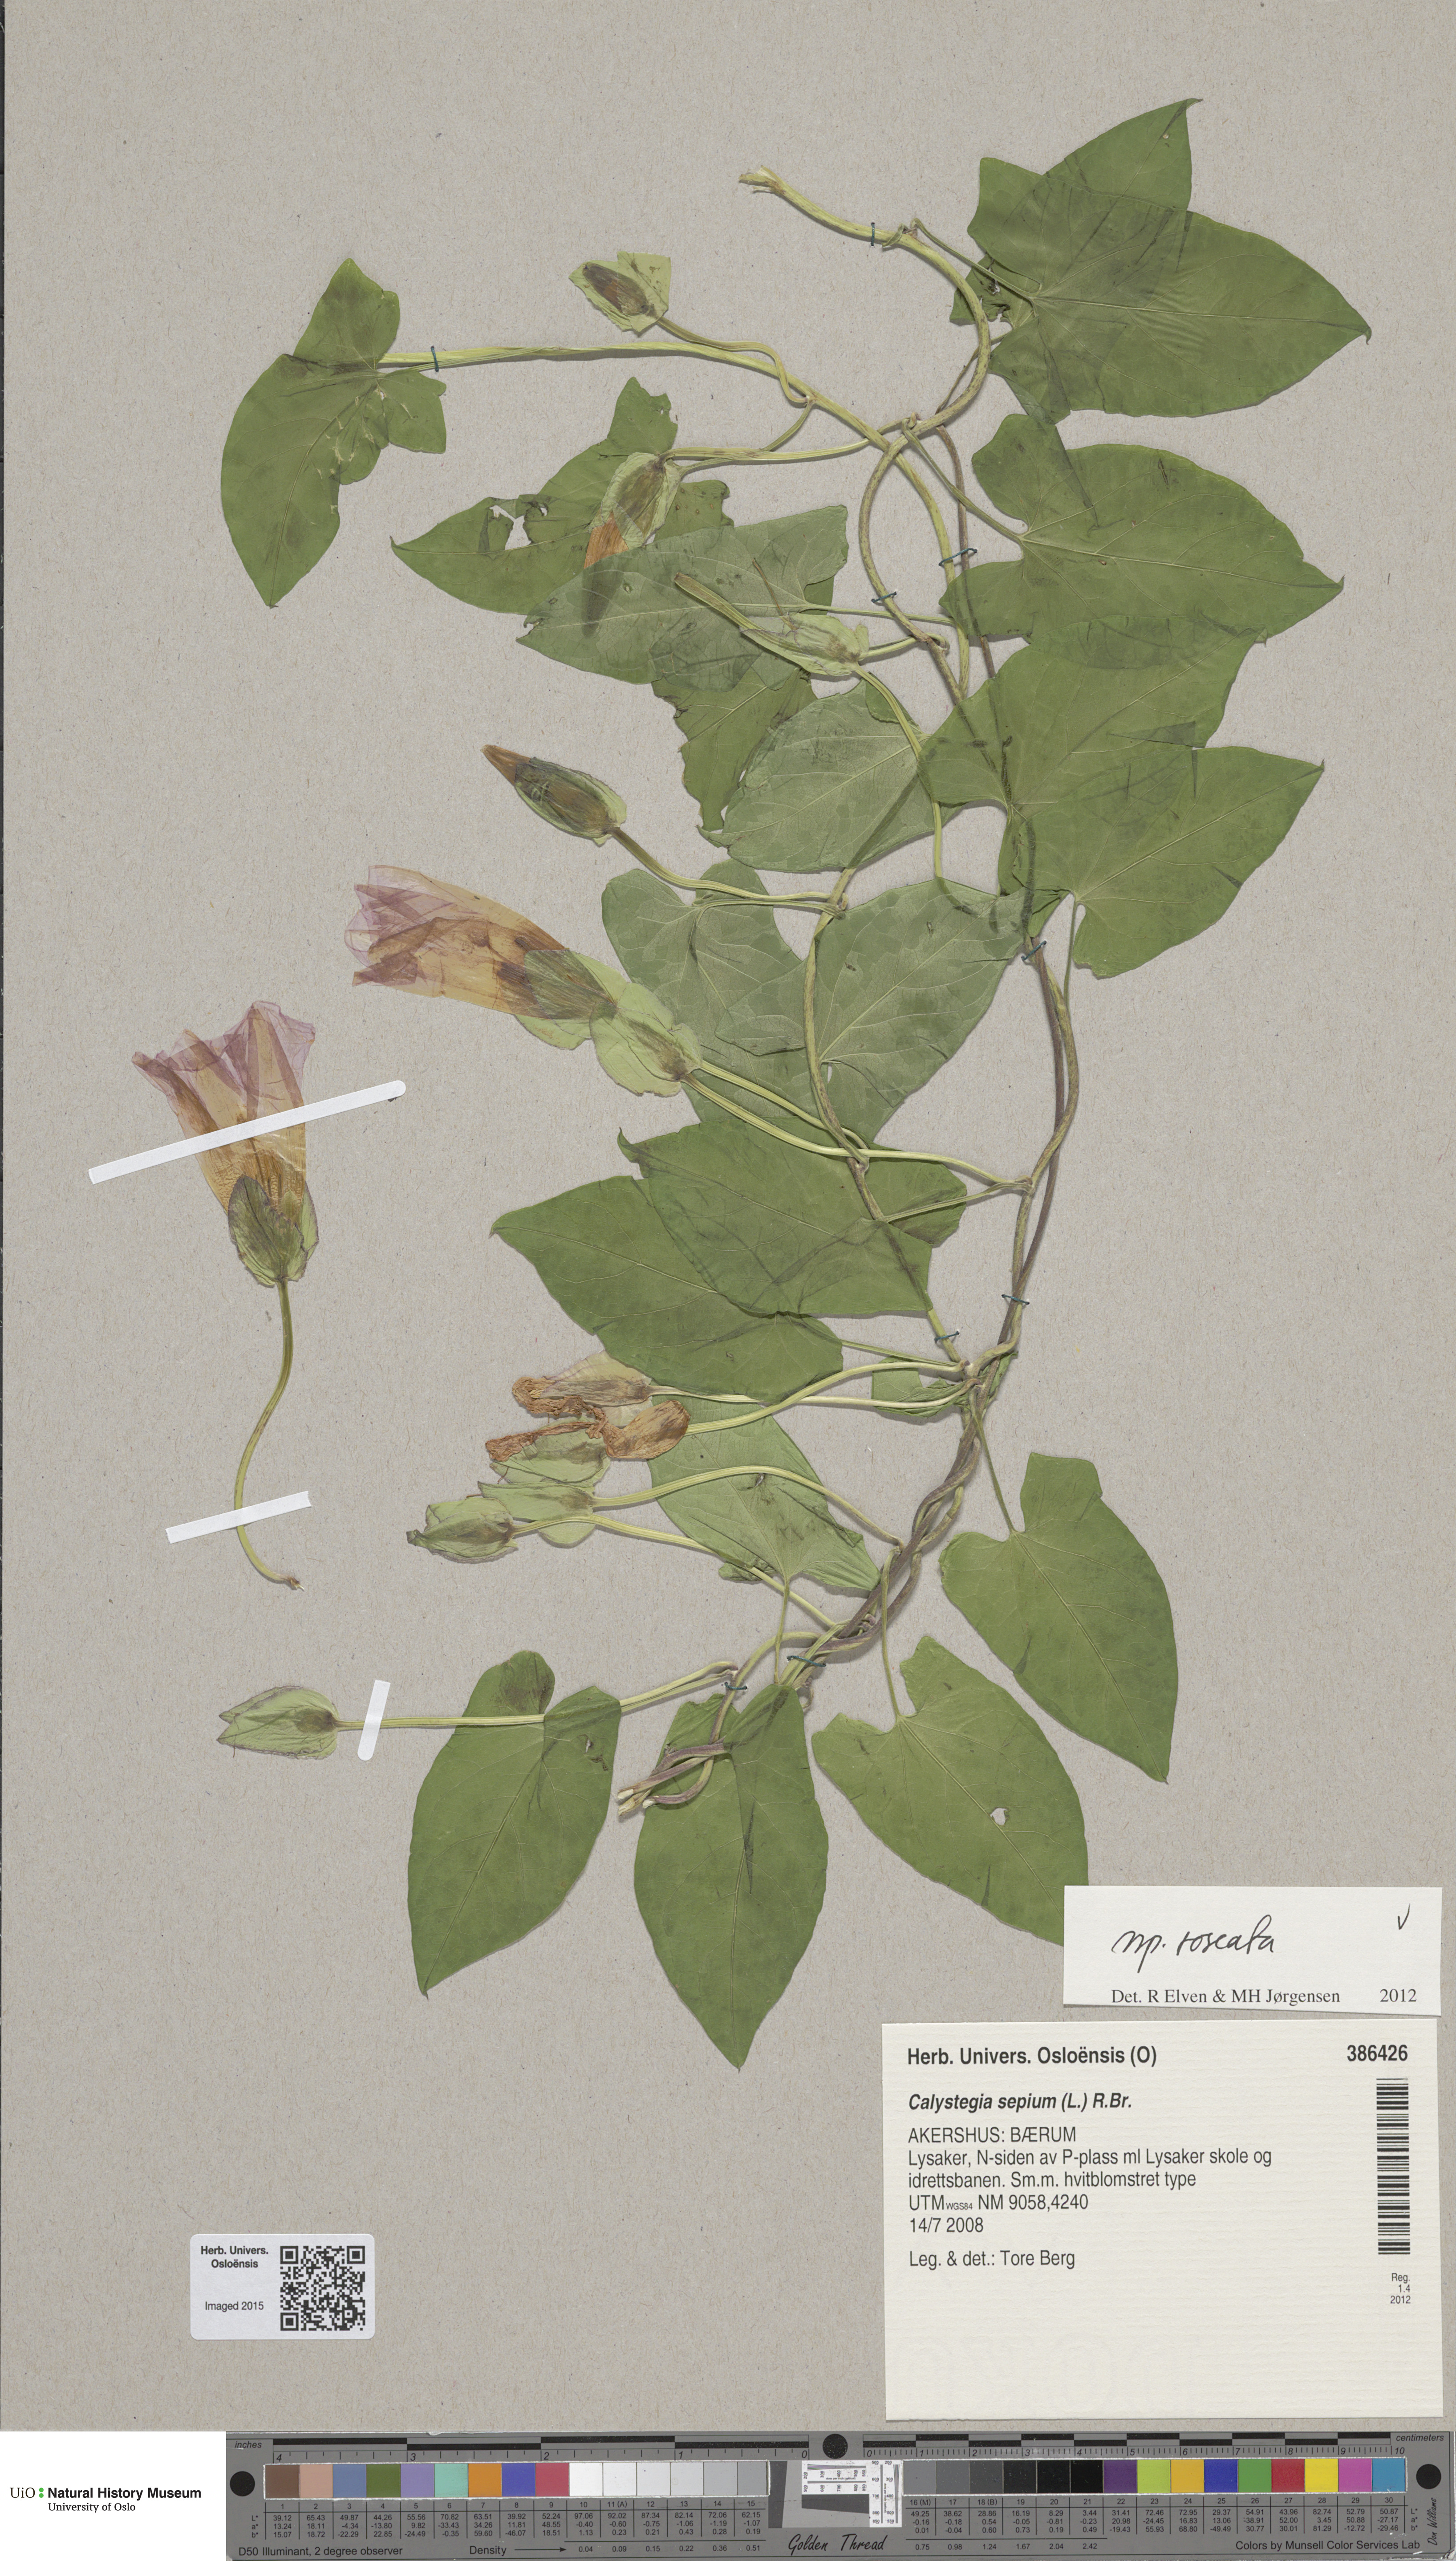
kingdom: Plantae
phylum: Tracheophyta
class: Magnoliopsida
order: Solanales
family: Convolvulaceae
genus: Calystegia
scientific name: Calystegia sepium
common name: Hedge bindweed
